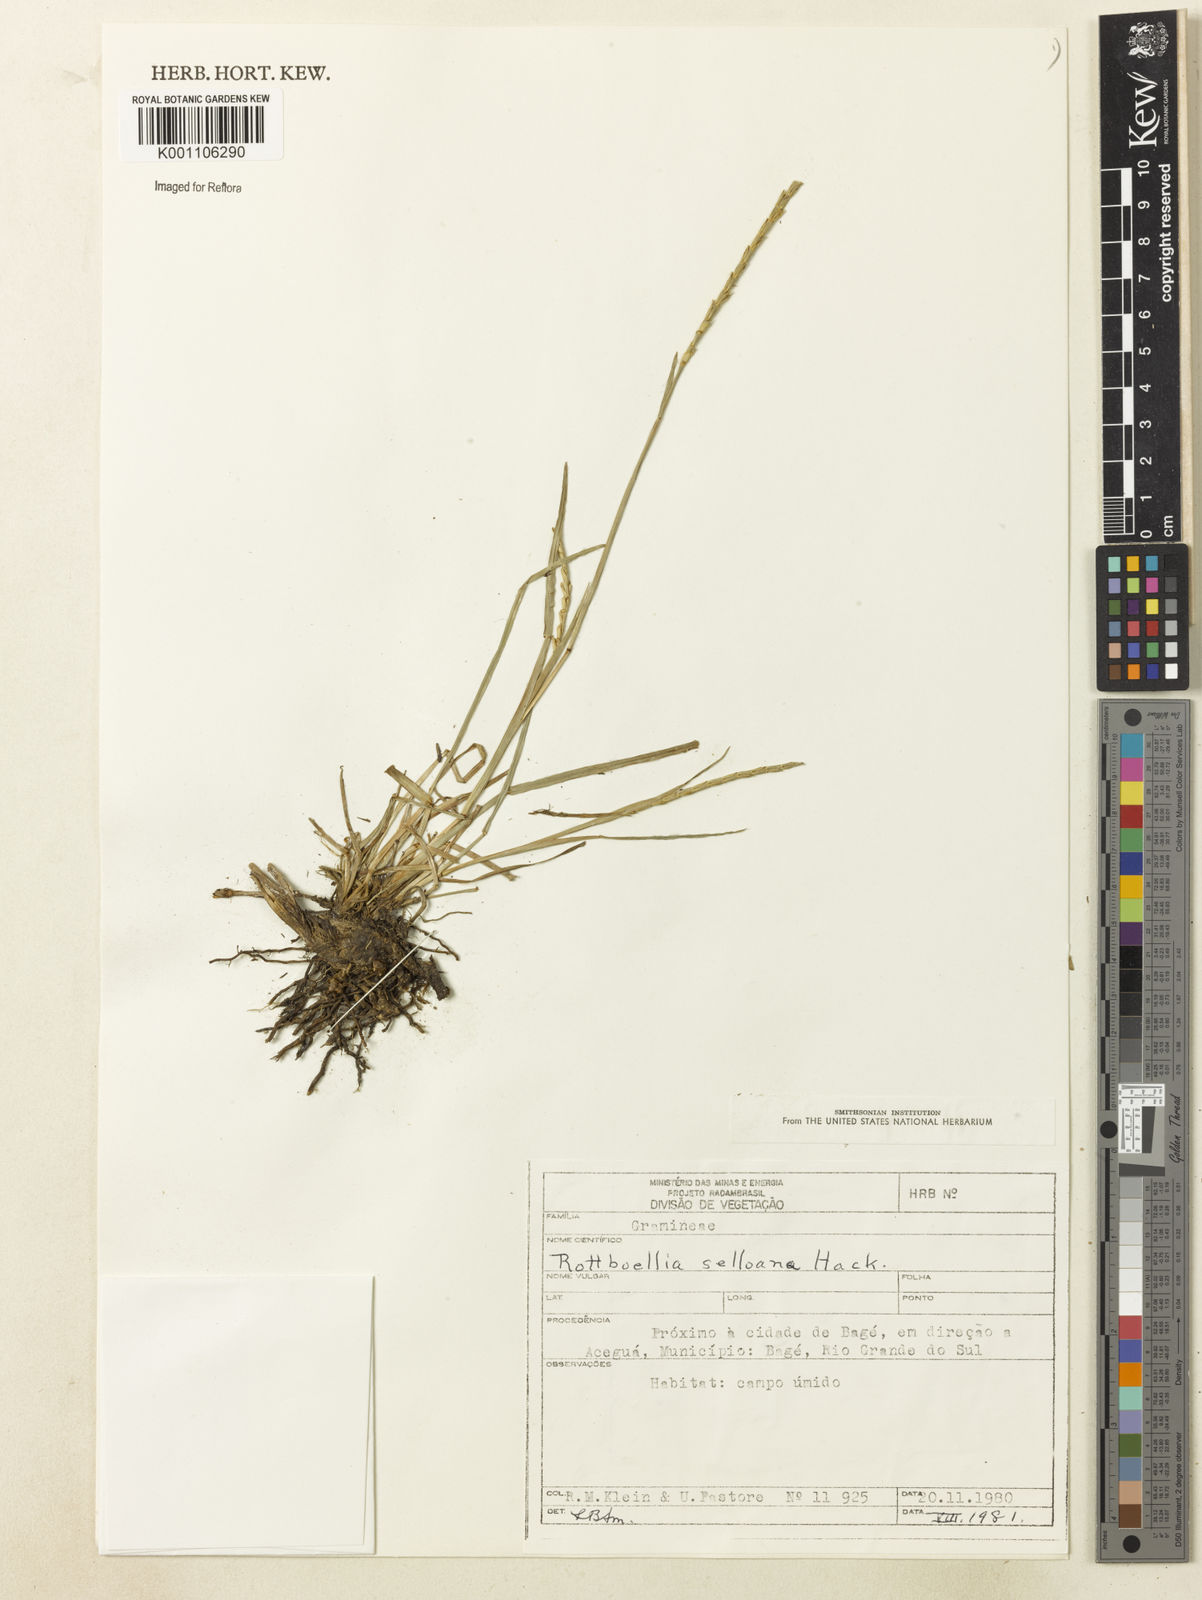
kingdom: Plantae
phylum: Tracheophyta
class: Liliopsida
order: Poales
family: Poaceae
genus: Rhytachne
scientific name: Rhytachne rottboellioides
